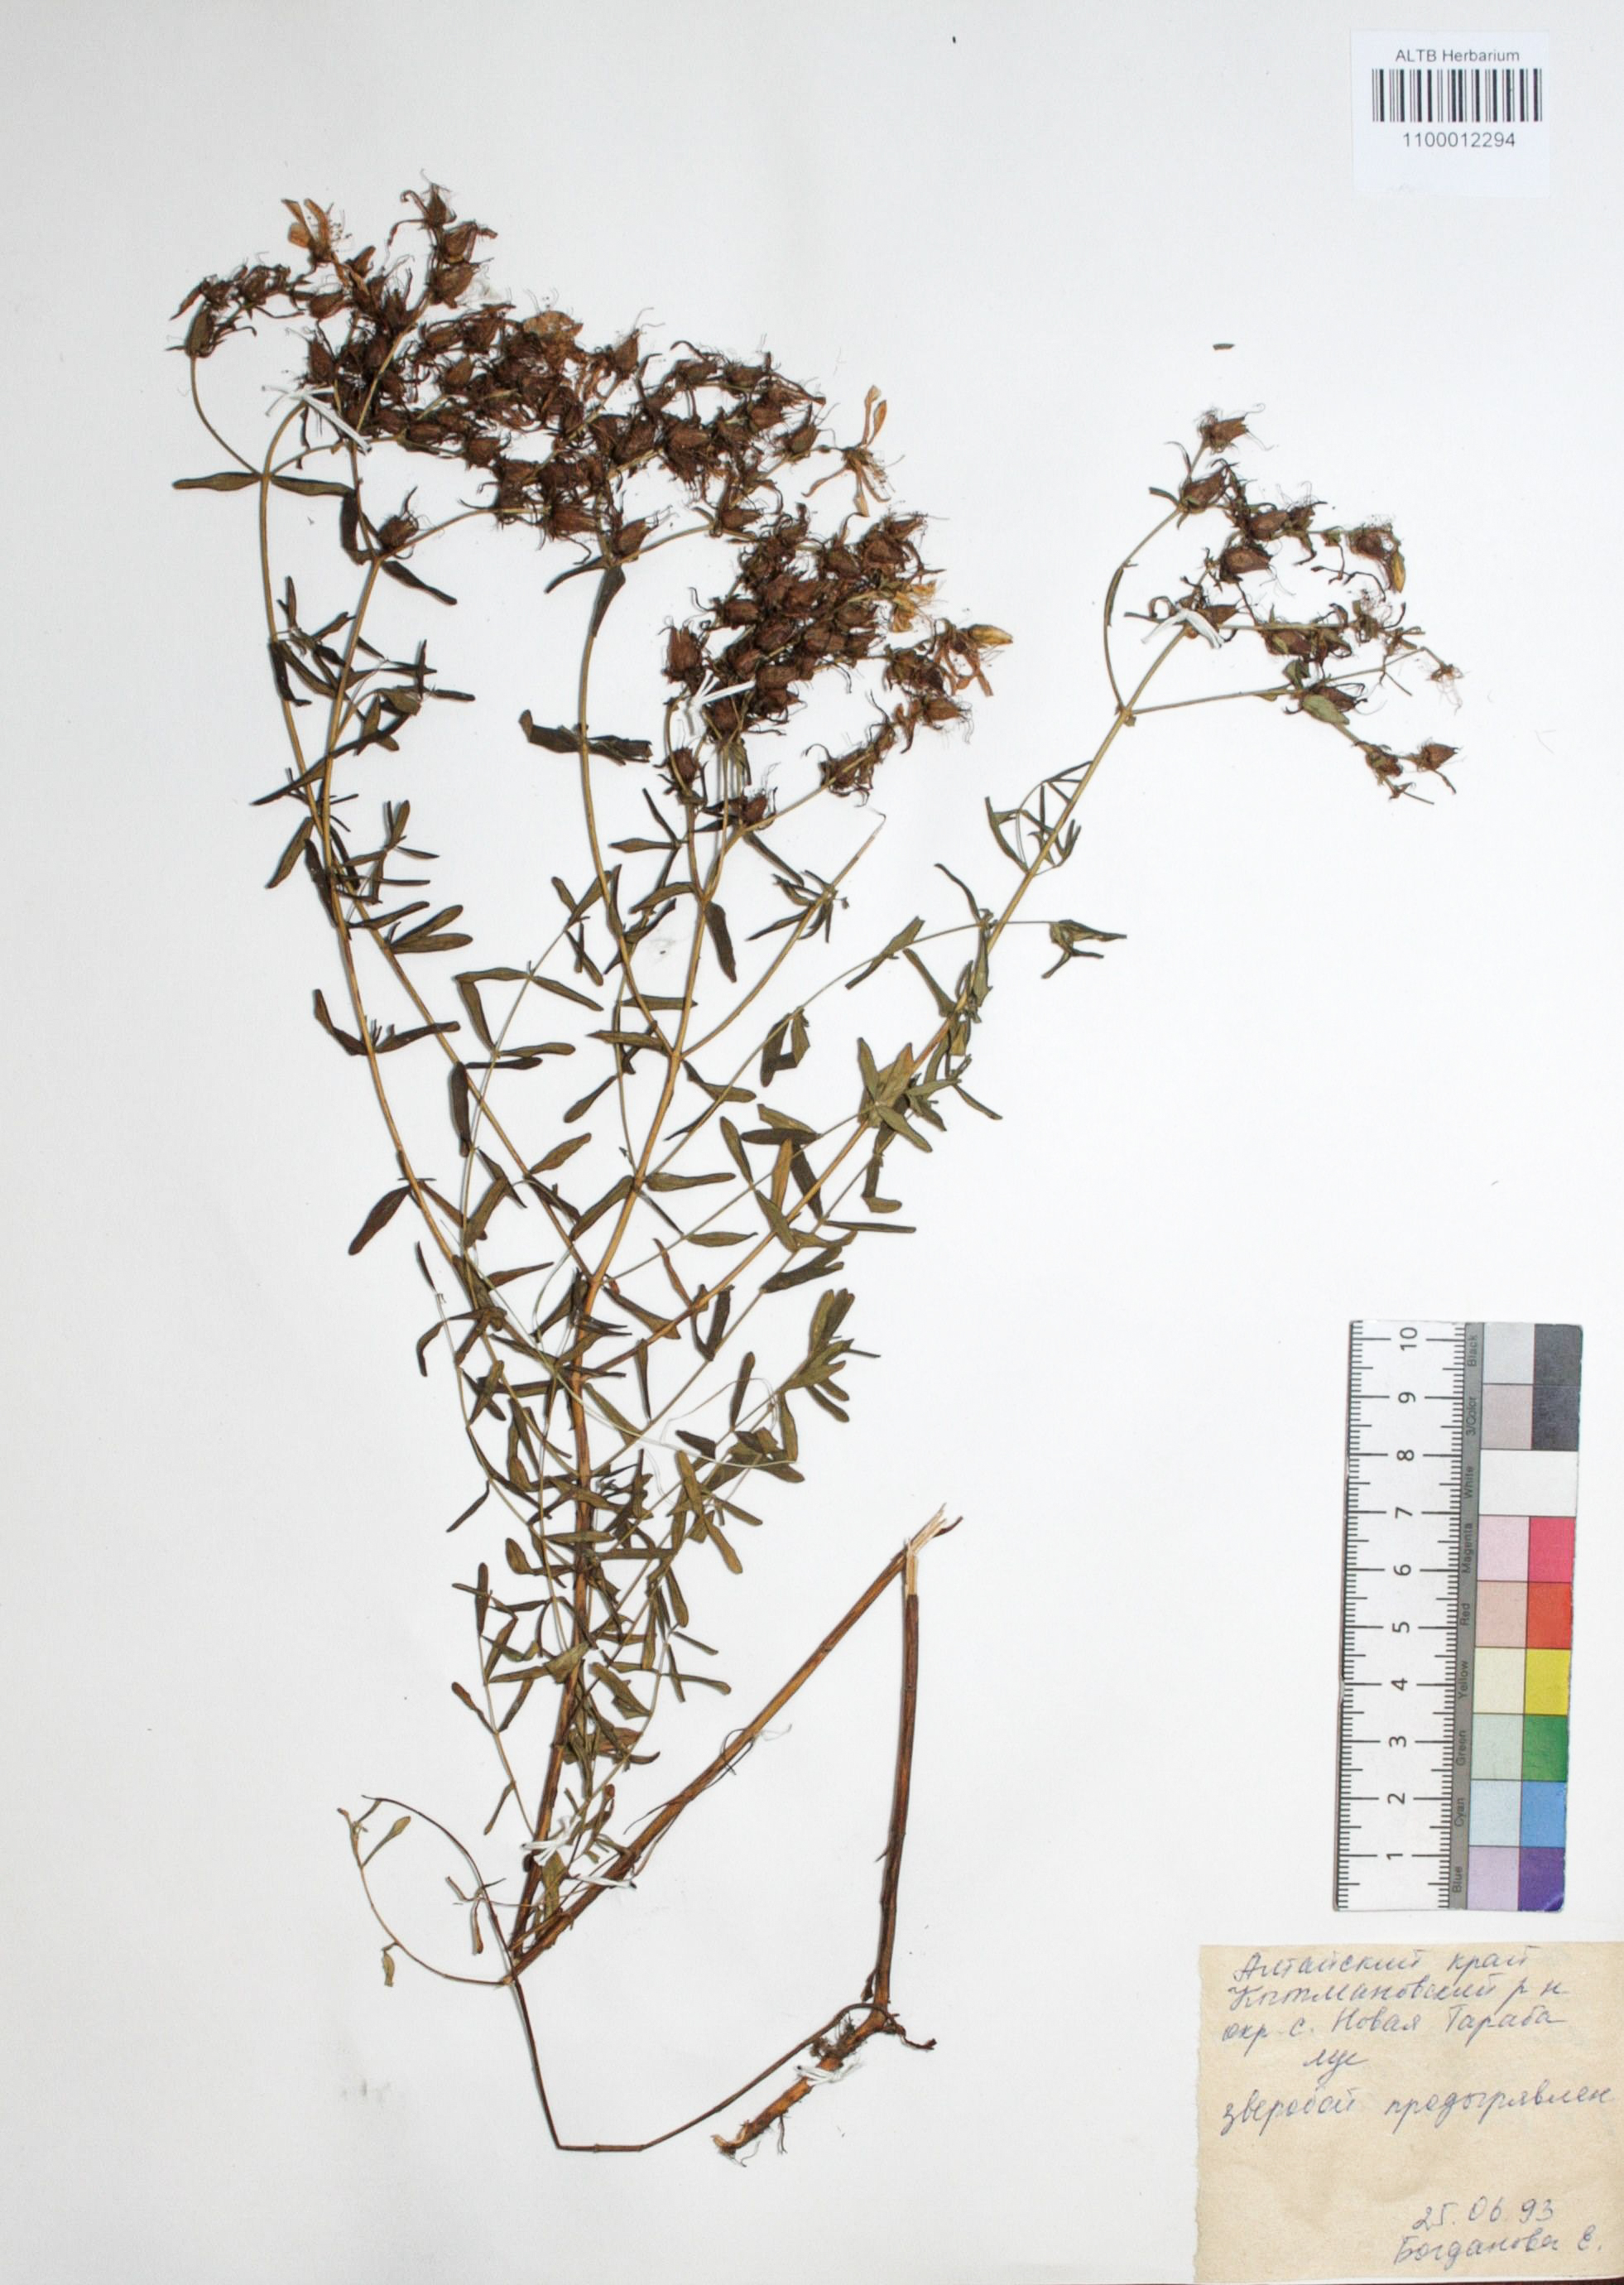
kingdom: Plantae
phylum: Tracheophyta
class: Magnoliopsida
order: Malpighiales
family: Hypericaceae
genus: Hypericum
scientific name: Hypericum perforatum
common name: Common st. johnswort
